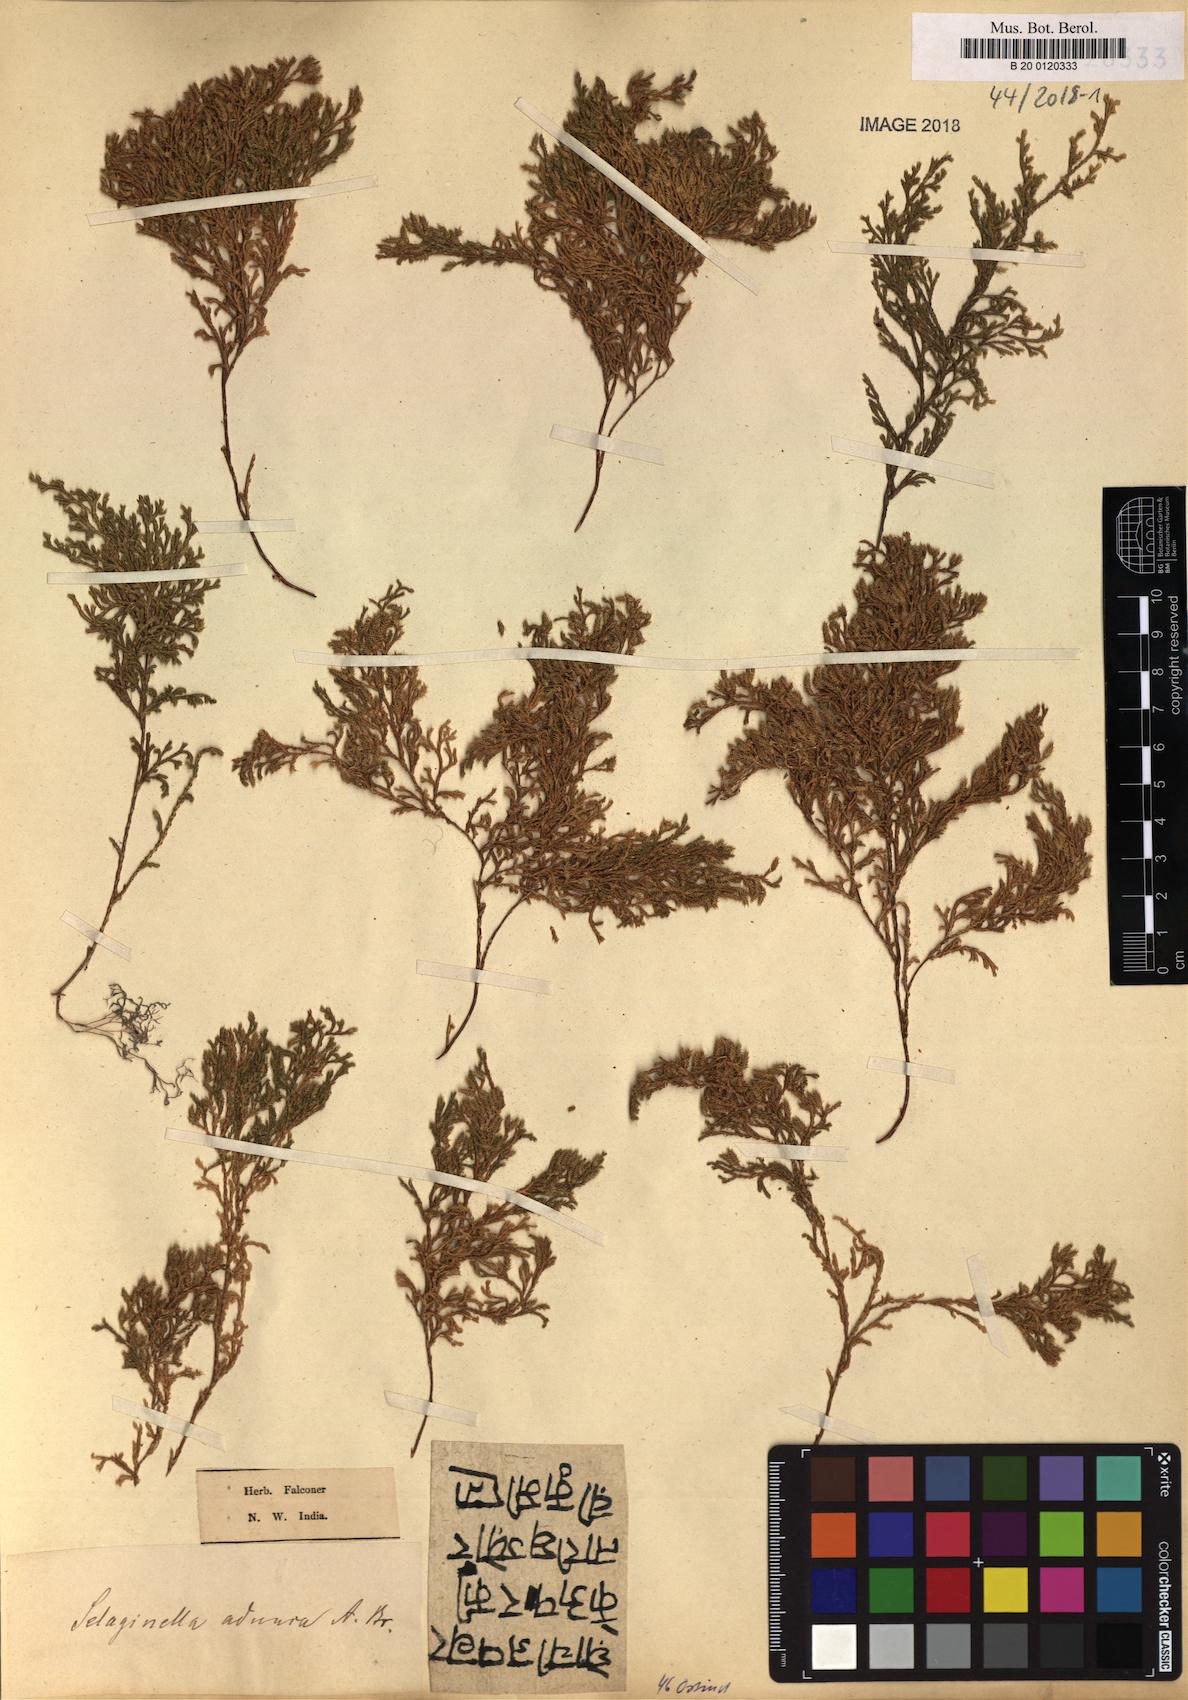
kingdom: Plantae
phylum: Tracheophyta
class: Lycopodiopsida
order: Selaginellales
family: Selaginellaceae
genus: Selaginella
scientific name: Selaginella adunca
